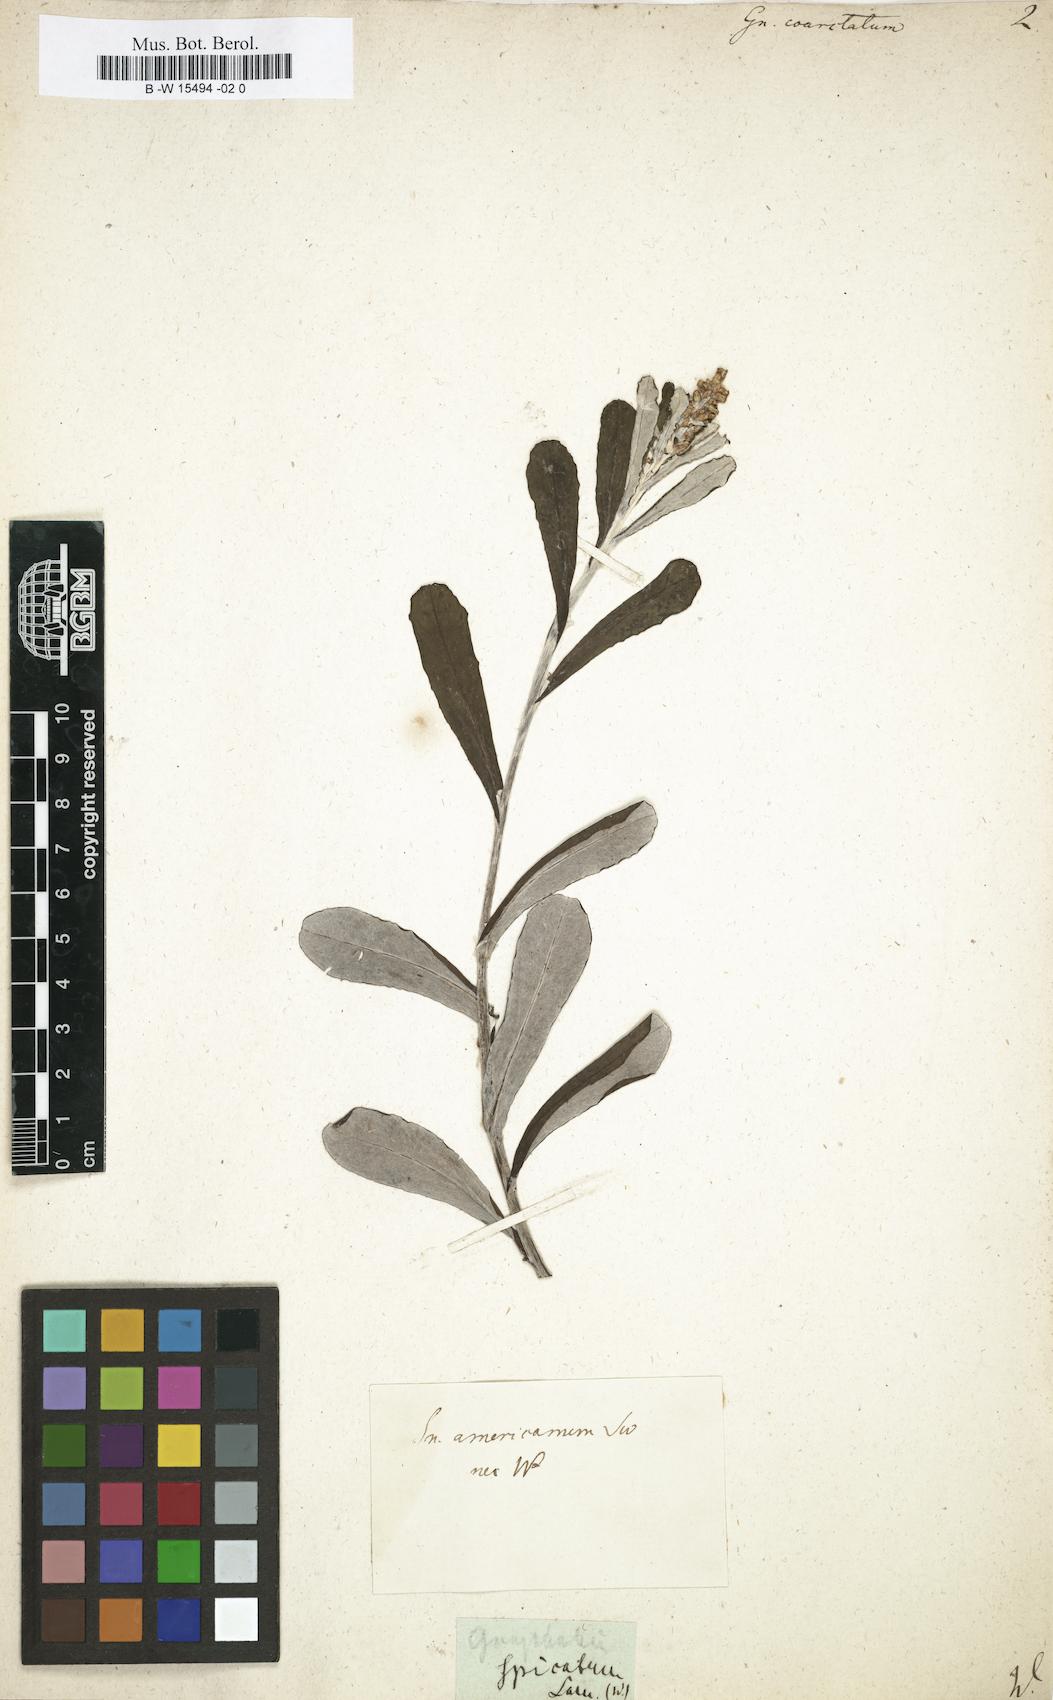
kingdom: Plantae
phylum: Tracheophyta
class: Magnoliopsida
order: Asterales
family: Asteraceae
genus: Gamochaeta
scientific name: Gamochaeta americana
